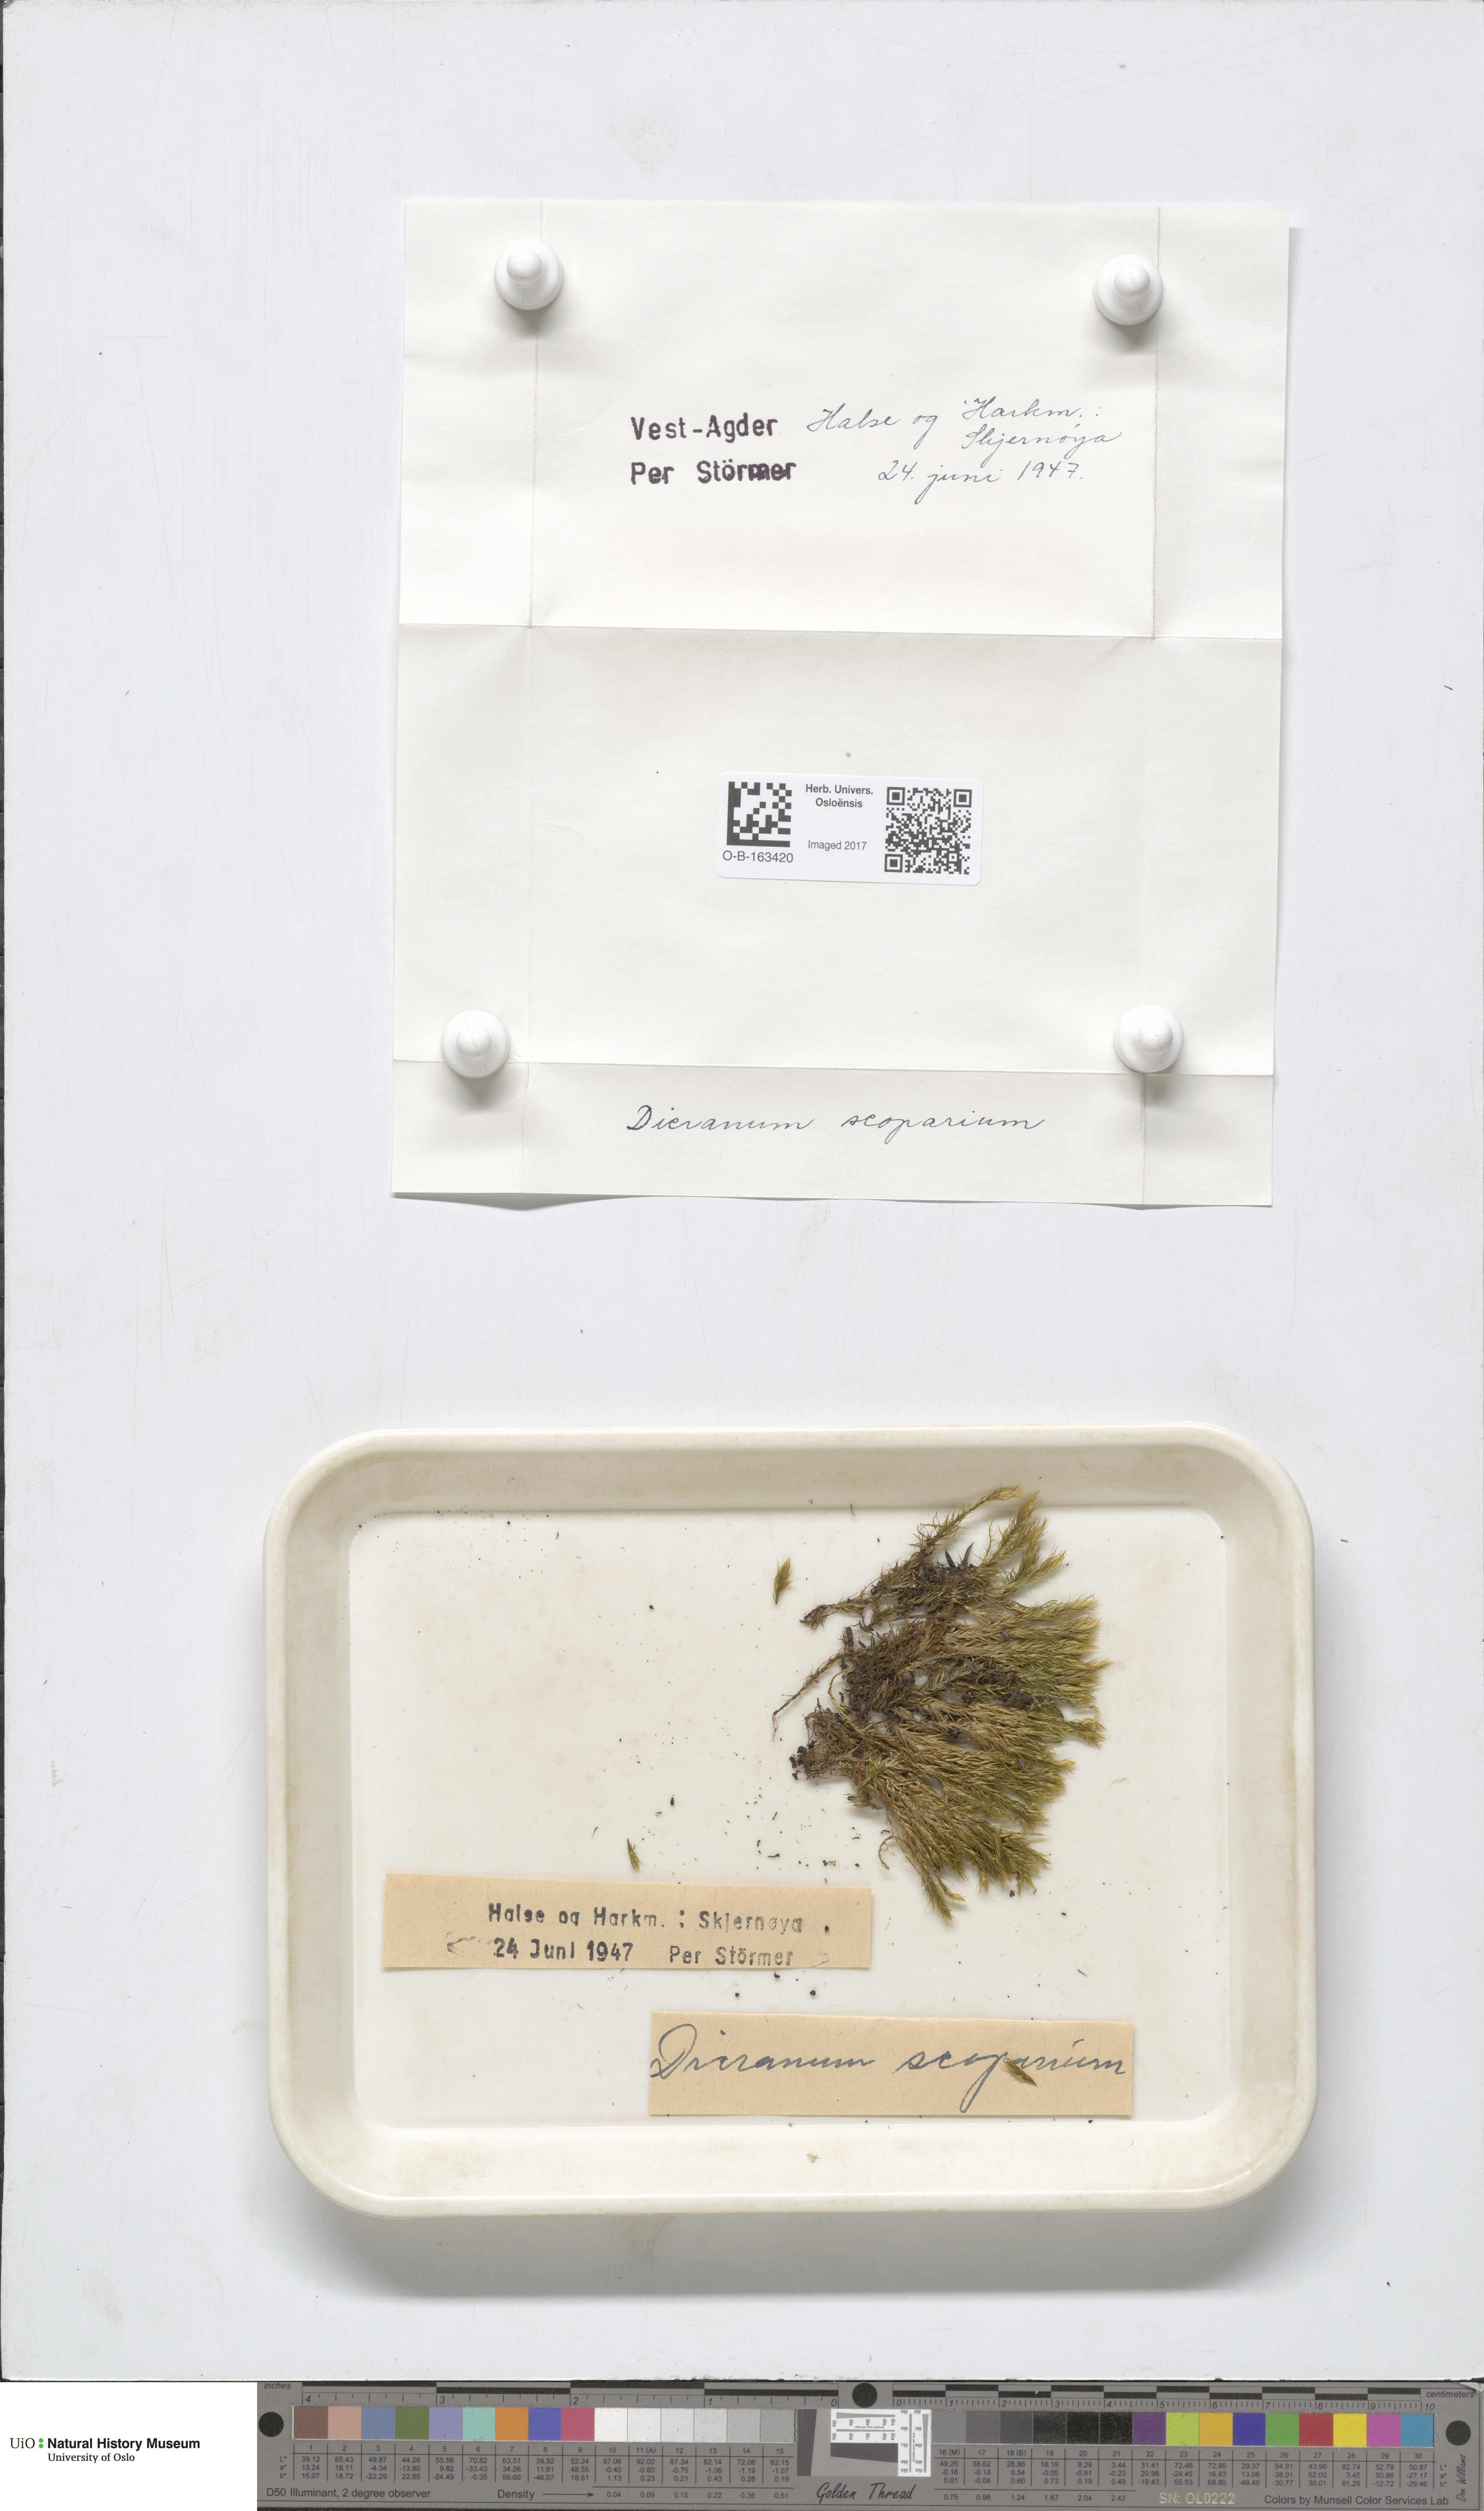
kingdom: Plantae
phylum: Bryophyta
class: Bryopsida
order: Dicranales
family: Dicranaceae
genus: Dicranum
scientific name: Dicranum scoparium
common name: Broom fork-moss
